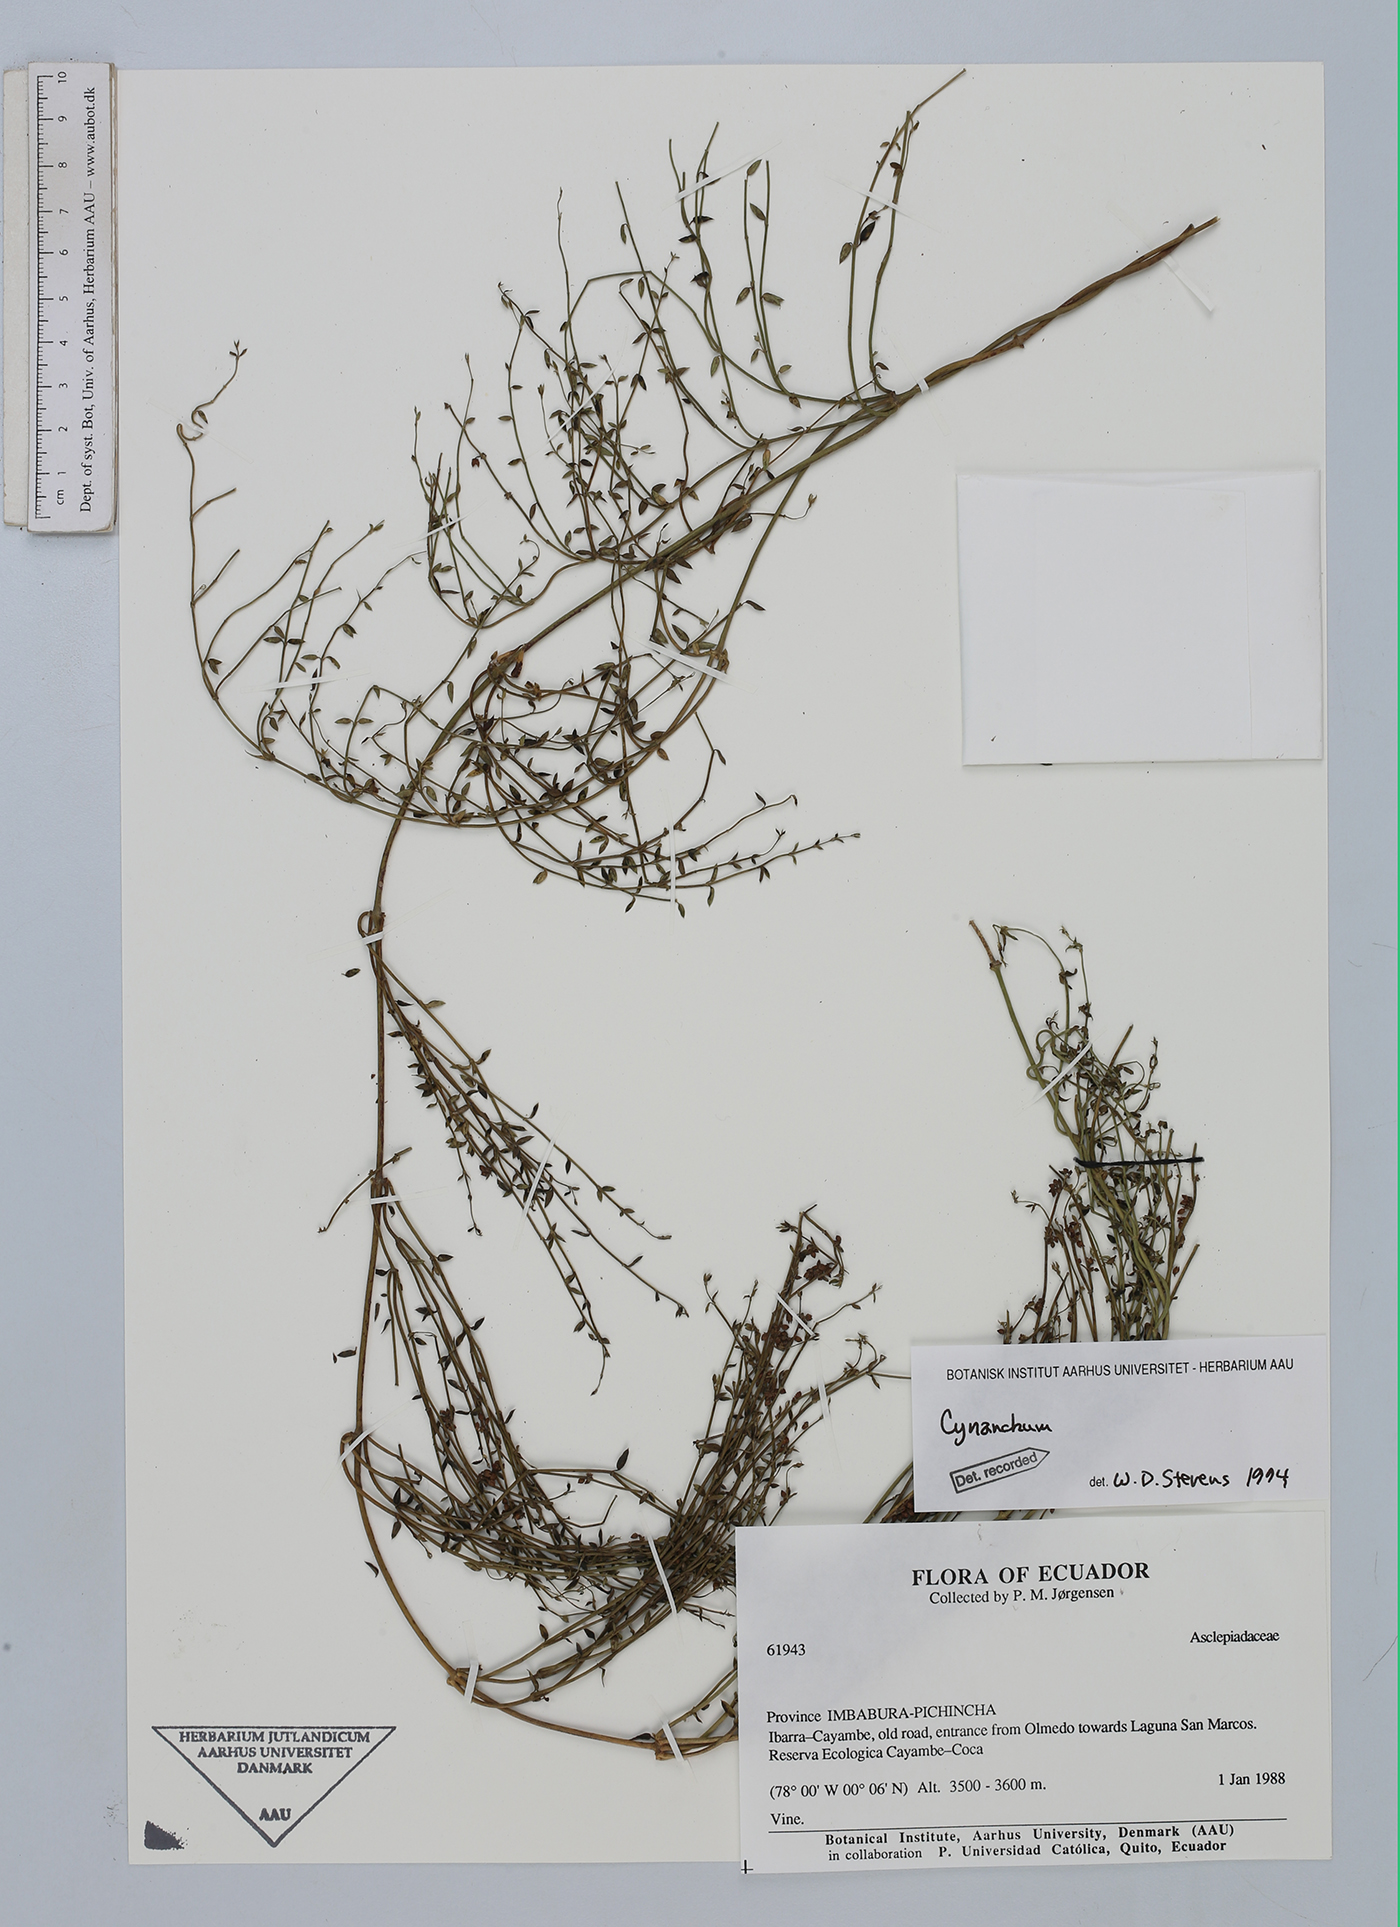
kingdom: Plantae
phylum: Tracheophyta
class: Magnoliopsida
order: Gentianales
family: Apocynaceae
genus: Cynanchum
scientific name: Cynanchum
